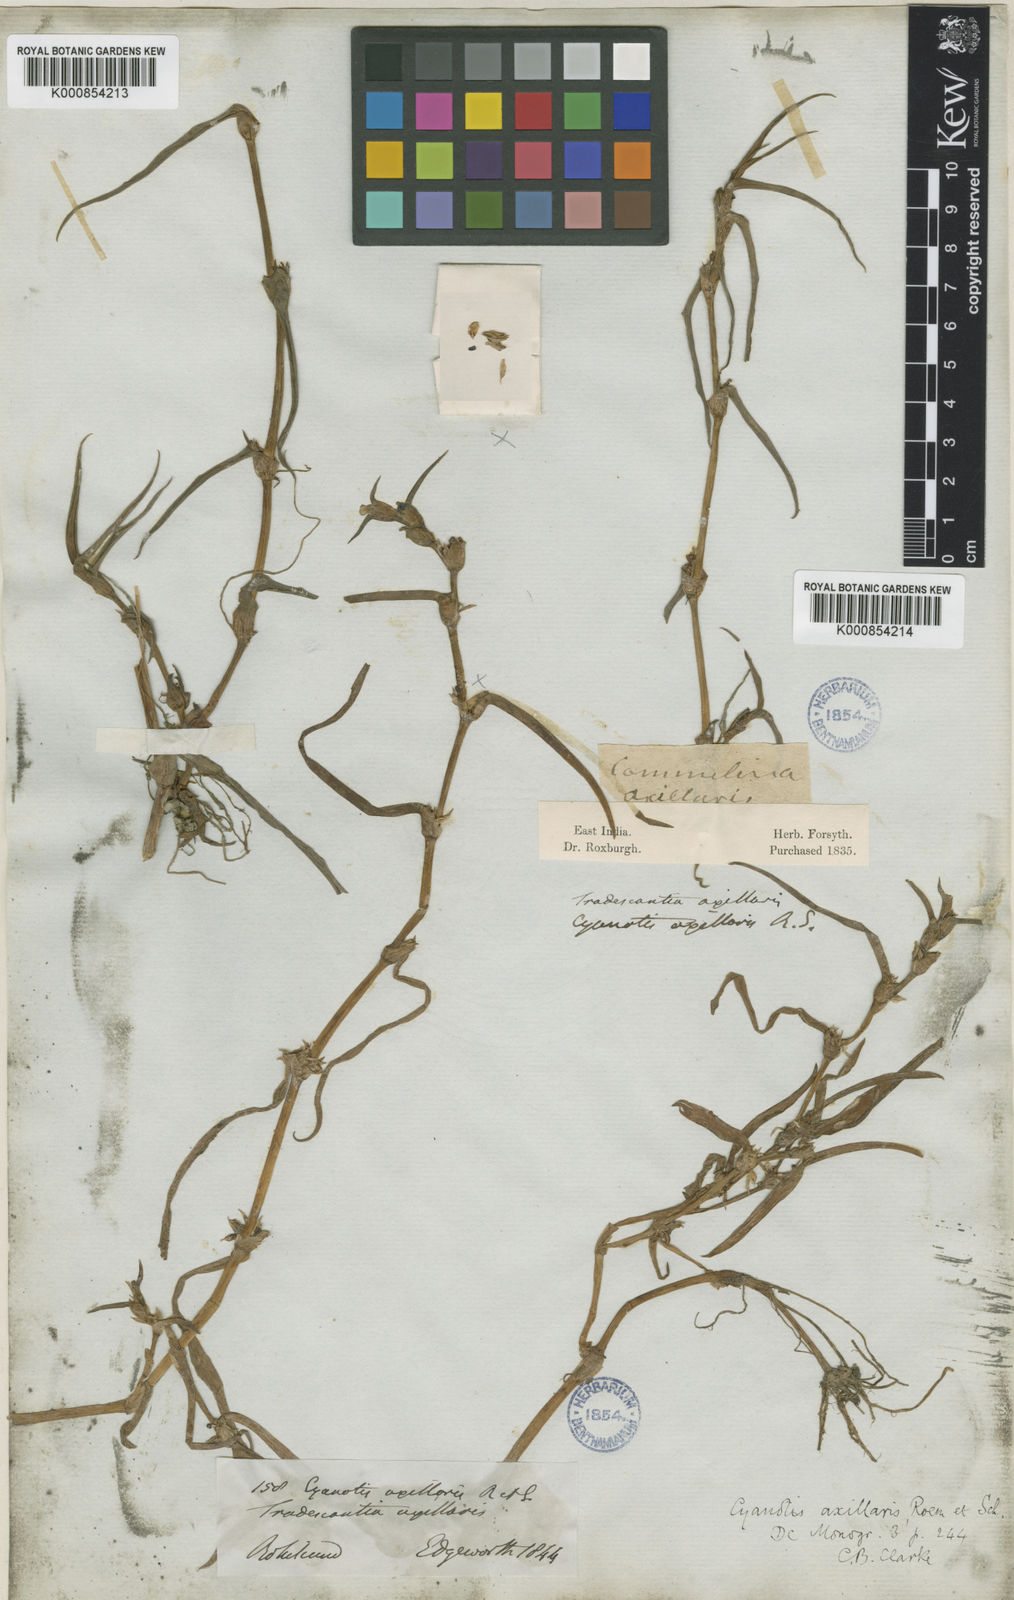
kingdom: Plantae
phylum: Tracheophyta
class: Liliopsida
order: Commelinales
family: Commelinaceae
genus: Cyanotis
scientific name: Cyanotis cucullata
